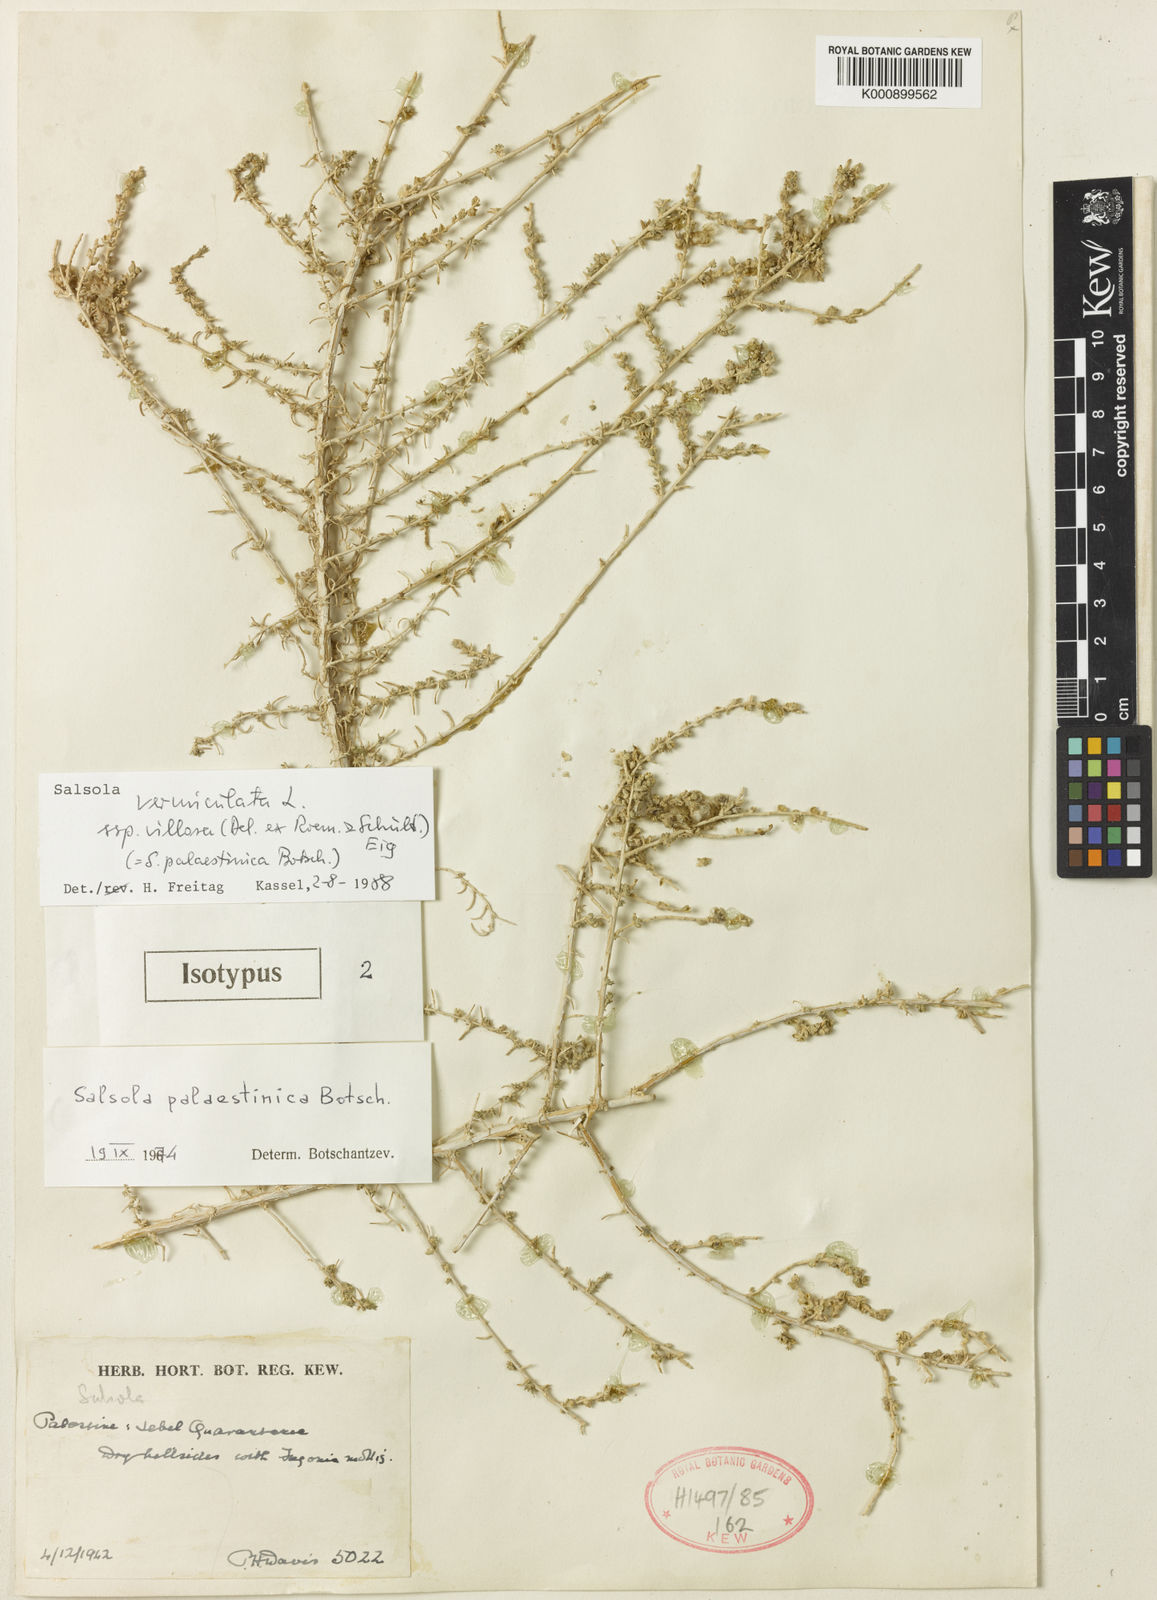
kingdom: Plantae
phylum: Tracheophyta
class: Magnoliopsida
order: Caryophyllales
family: Amaranthaceae
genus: Nitrosalsola
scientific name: Nitrosalsola vermiculata
